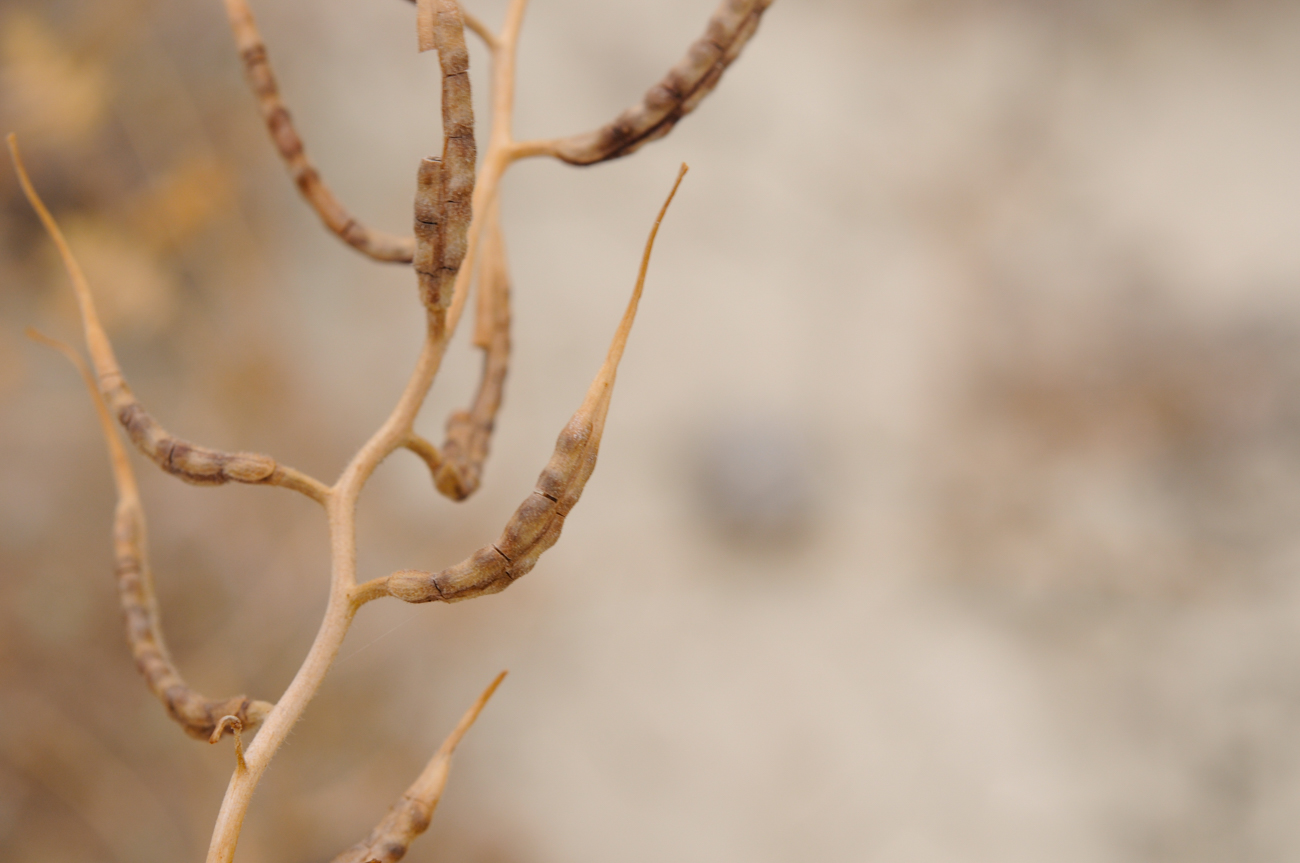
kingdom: Plantae
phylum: Tracheophyta
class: Magnoliopsida
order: Brassicales
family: Brassicaceae
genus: Chorispora
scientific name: Chorispora iberica
